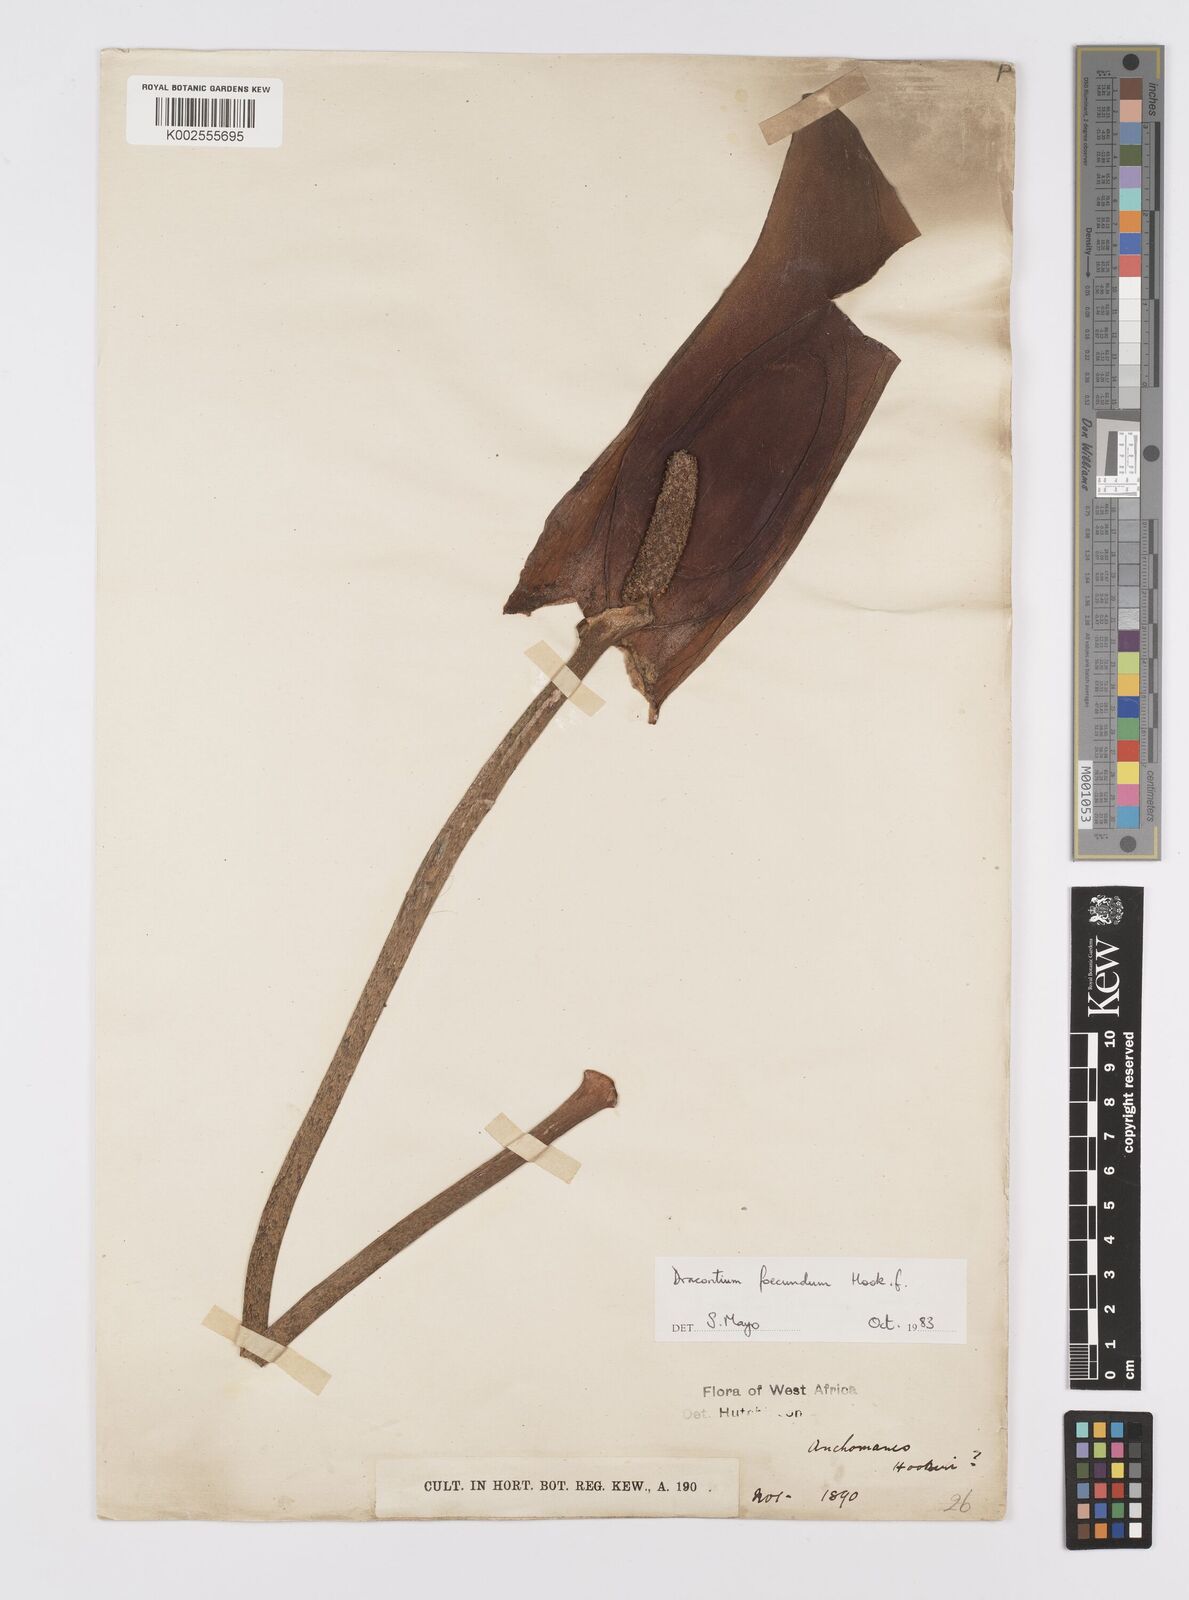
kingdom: Plantae
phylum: Tracheophyta
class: Liliopsida
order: Alismatales
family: Araceae
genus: Dracontium
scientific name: Dracontium asperum
